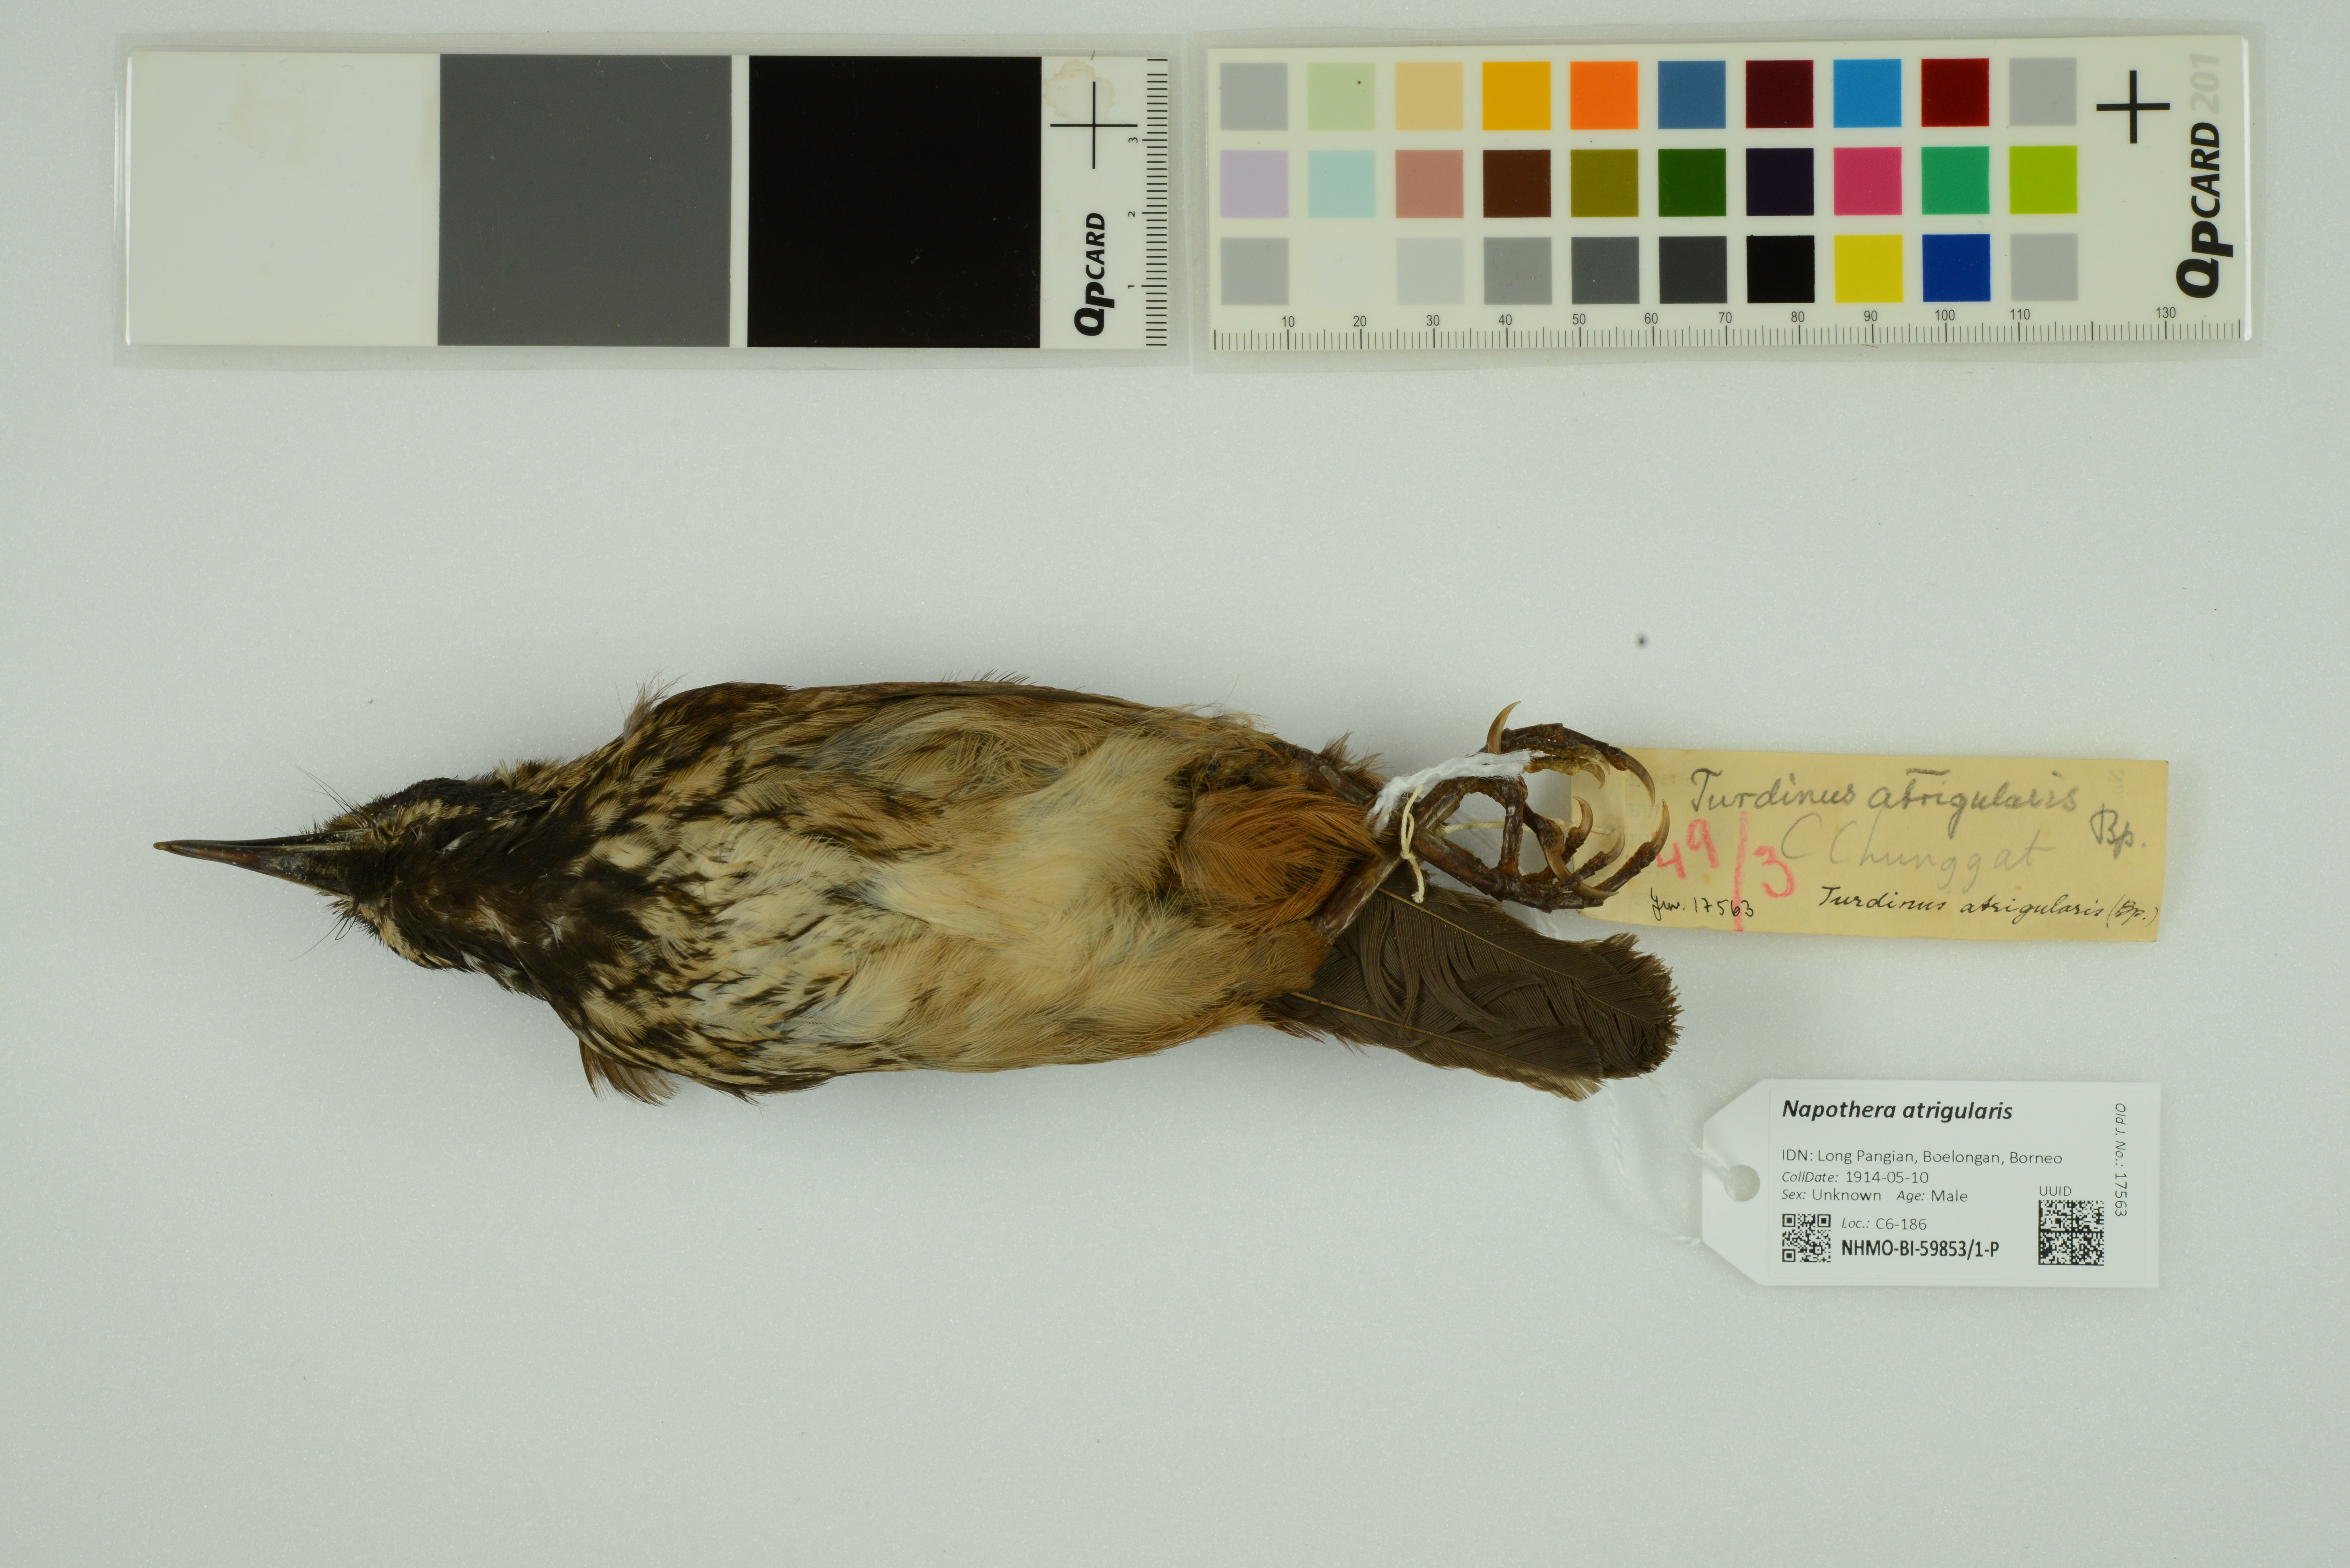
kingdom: Animalia
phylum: Chordata
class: Aves
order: Passeriformes
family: Pellorneidae
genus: Napothera
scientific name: Napothera atrigularis
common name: Black-throated wren-babbler
